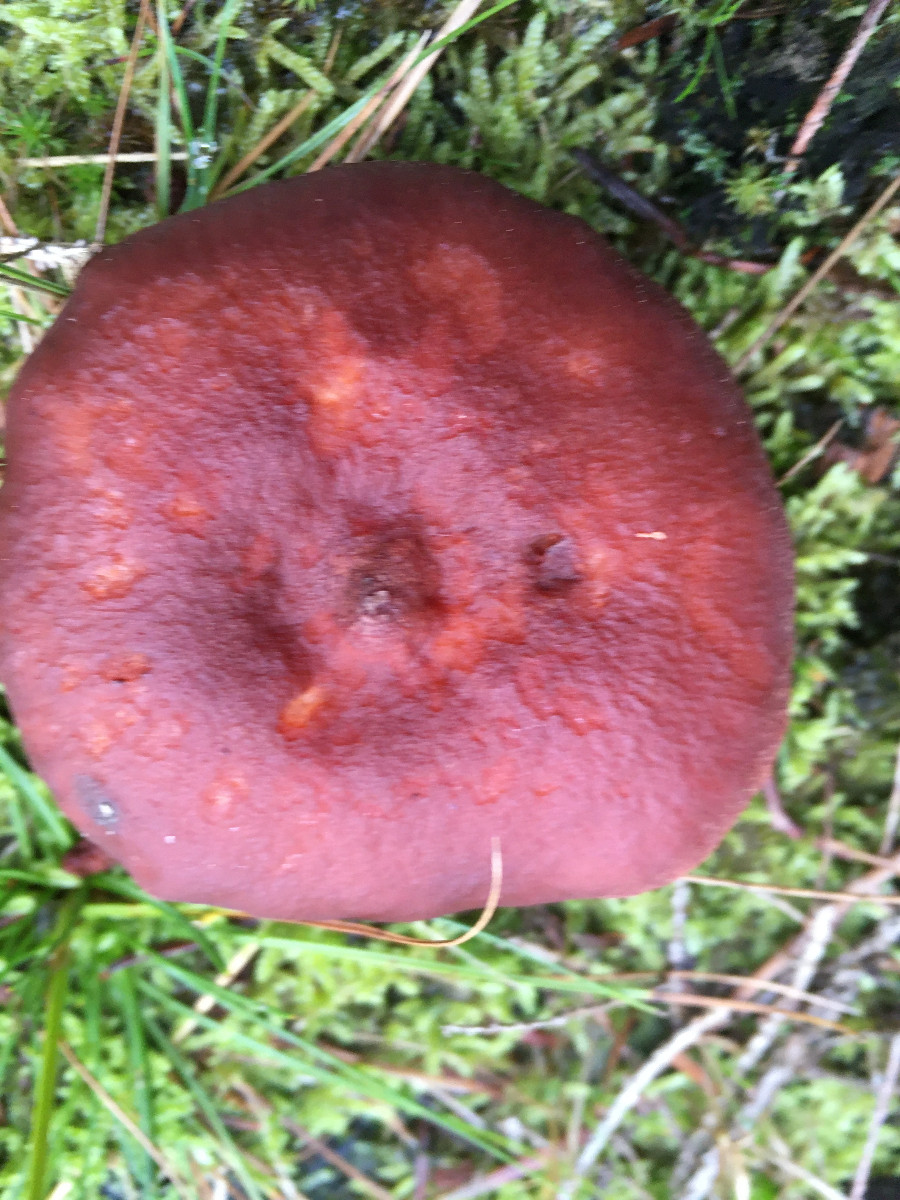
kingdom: Fungi
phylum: Basidiomycota
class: Agaricomycetes
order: Russulales
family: Russulaceae
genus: Lactarius
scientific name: Lactarius rufus
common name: rødbrun mælkehat
